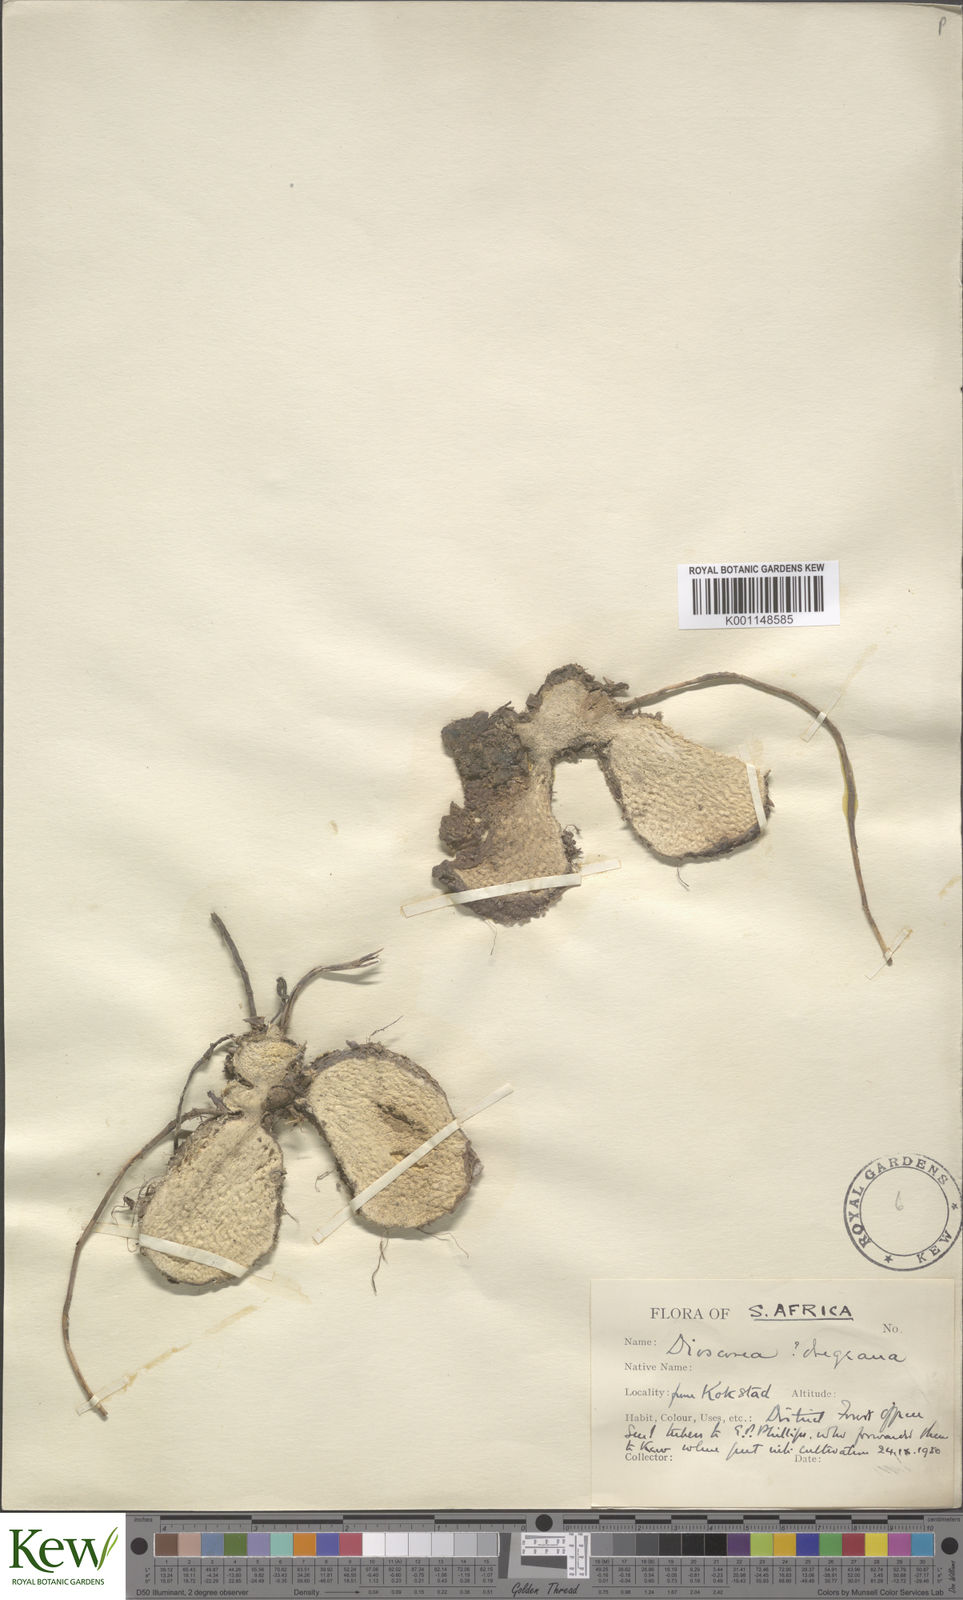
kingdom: Plantae
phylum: Tracheophyta
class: Liliopsida
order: Dioscoreales
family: Dioscoreaceae
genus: Dioscorea
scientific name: Dioscorea dregeana
